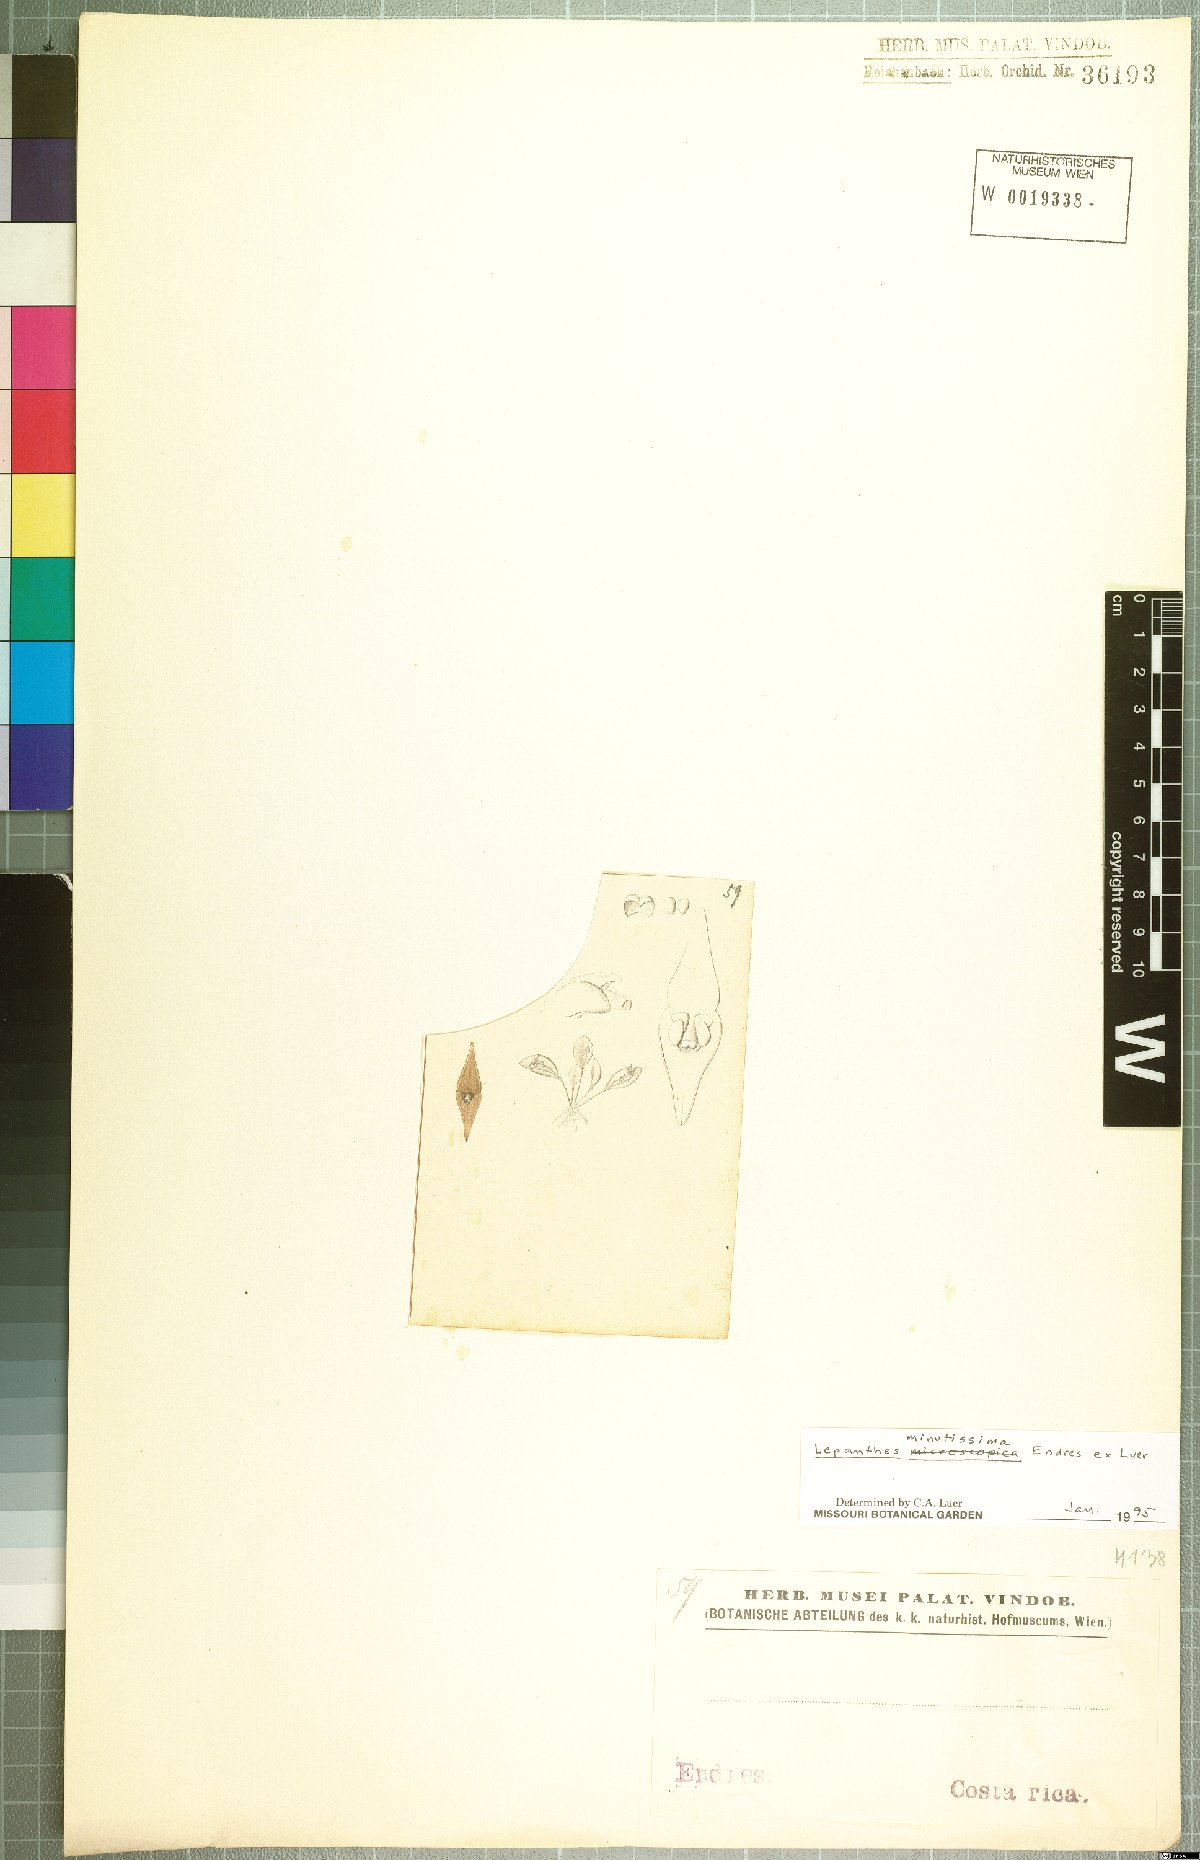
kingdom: Plantae
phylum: Tracheophyta
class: Liliopsida
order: Asparagales
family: Orchidaceae
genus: Lepanthes
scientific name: Lepanthes minutissima
